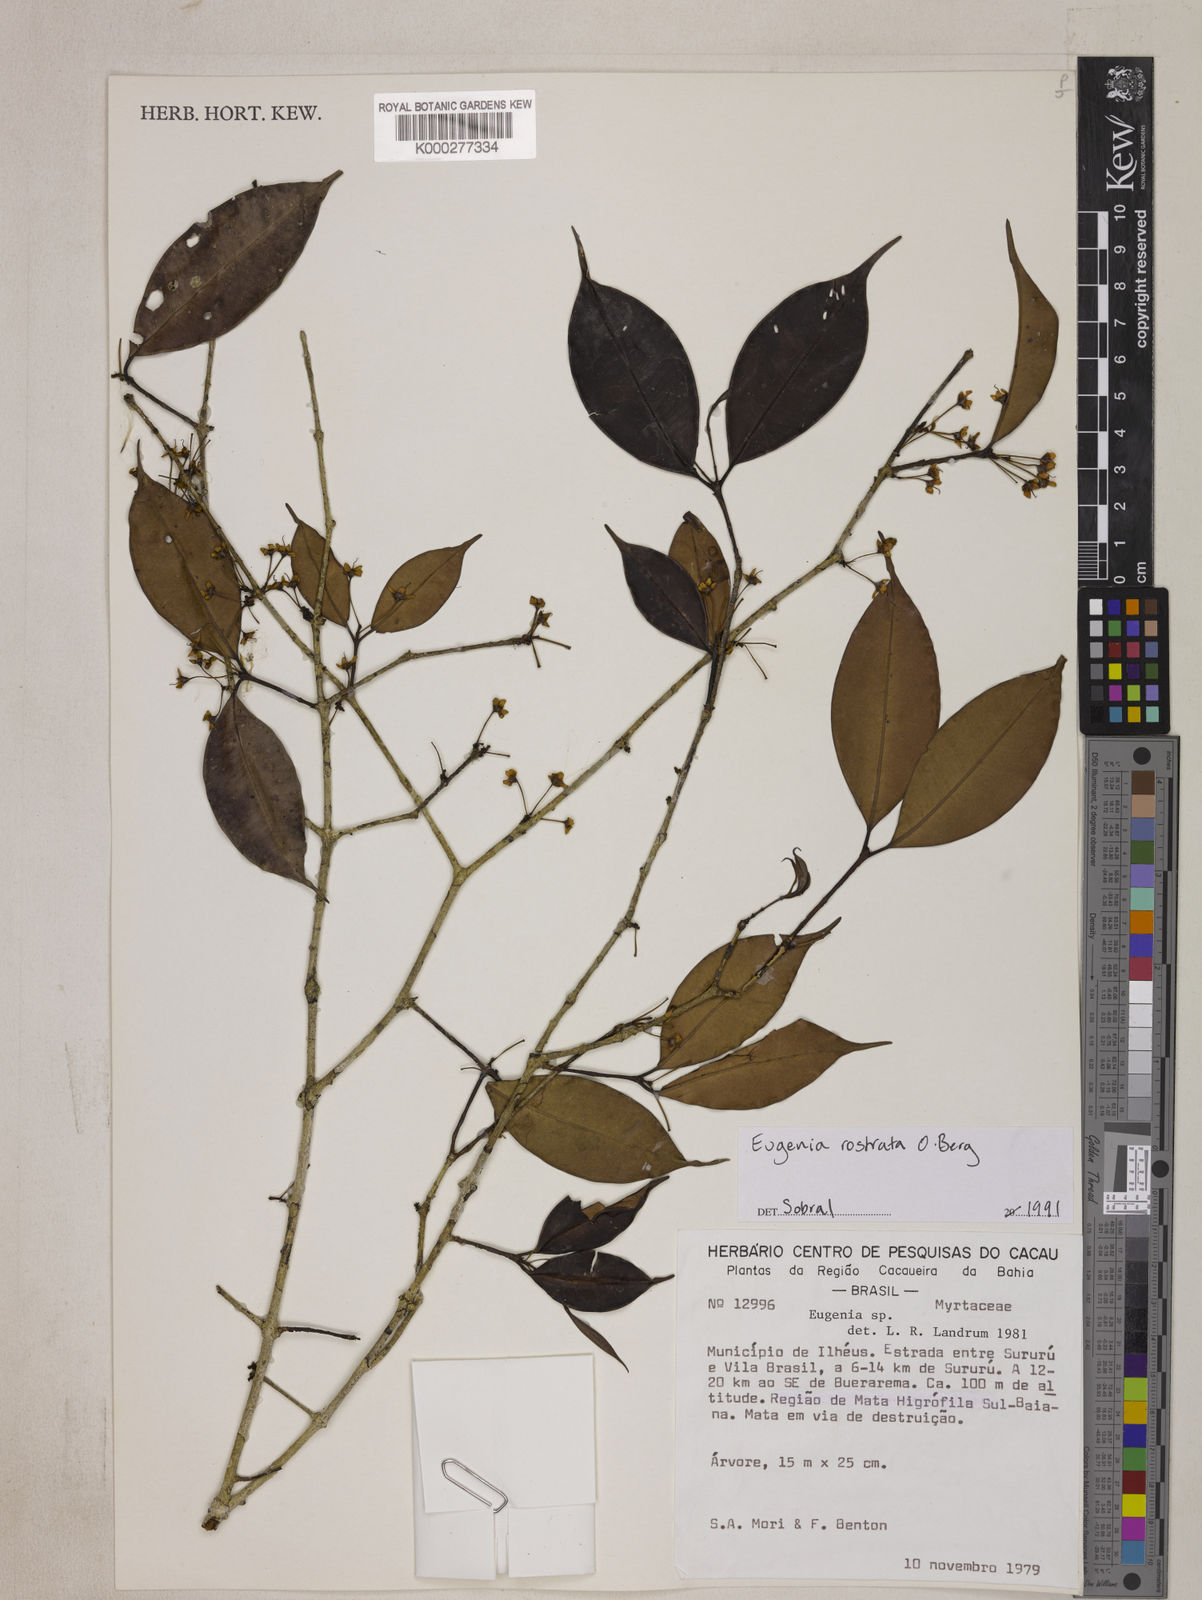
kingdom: Plantae
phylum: Tracheophyta
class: Magnoliopsida
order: Myrtales
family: Myrtaceae
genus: Eugenia
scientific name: Eugenia zuccarinii
